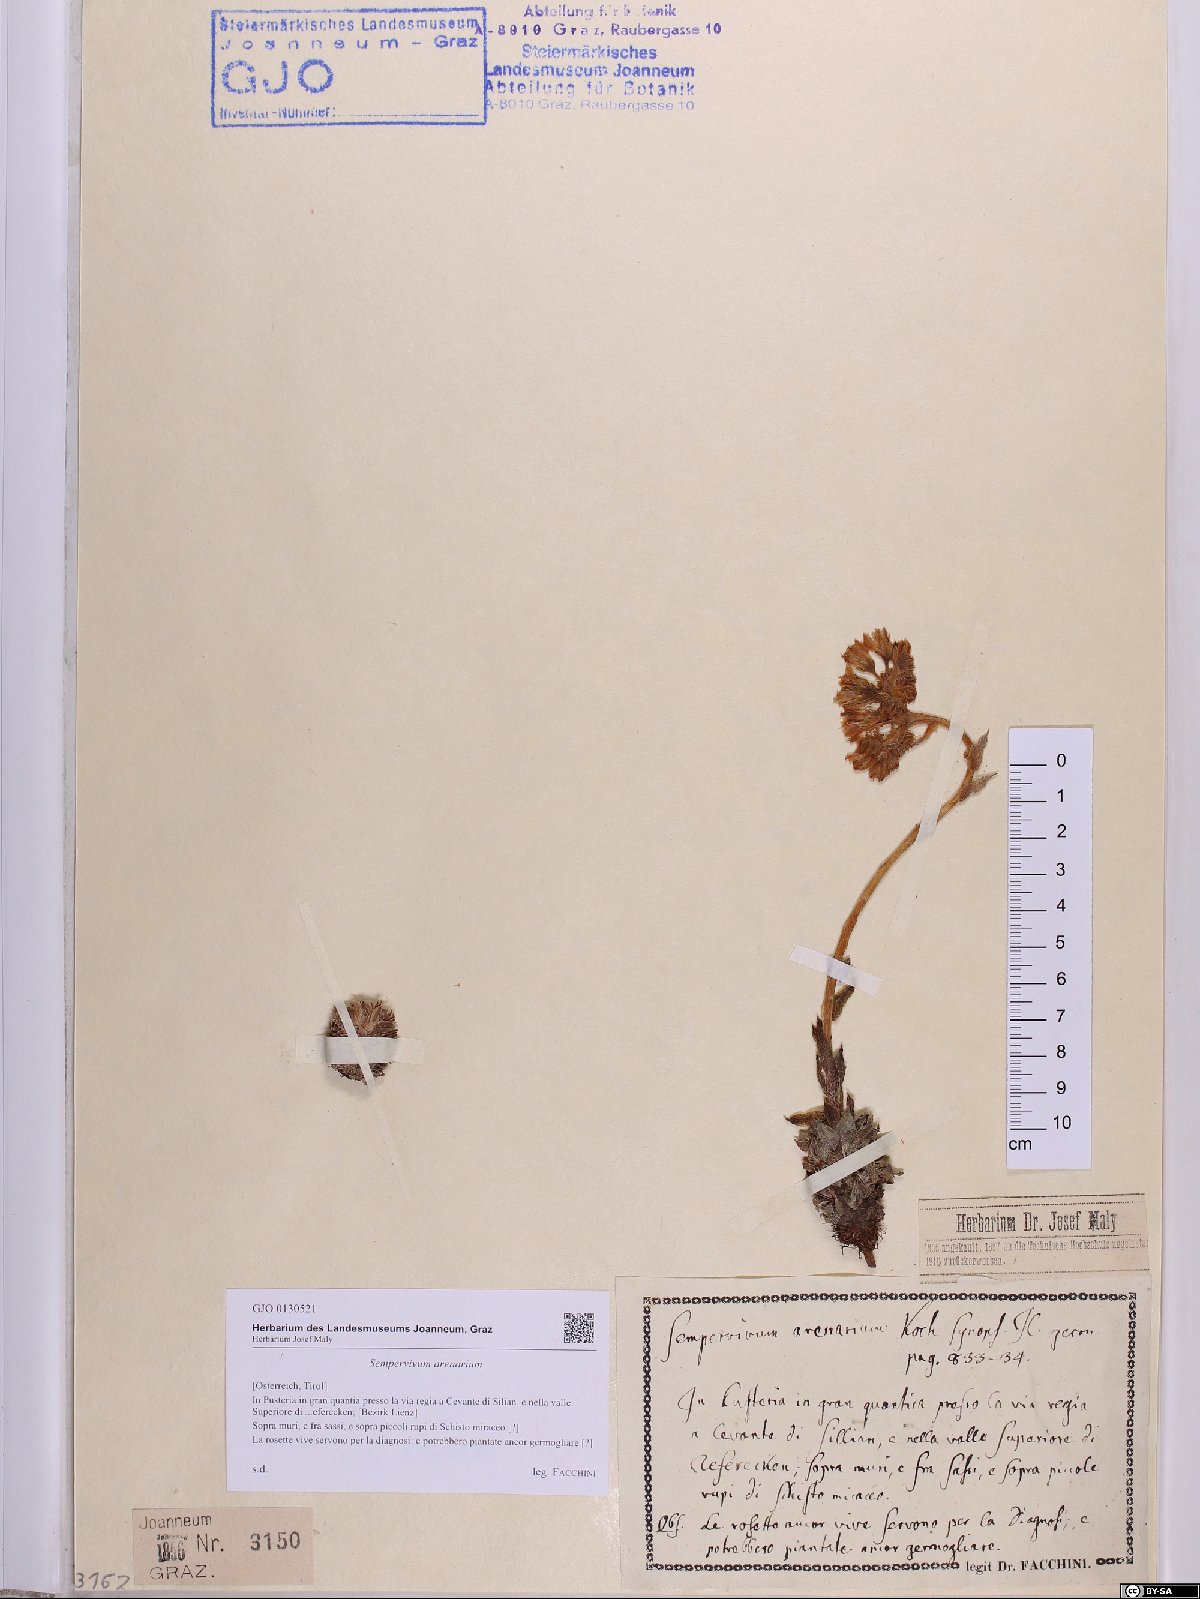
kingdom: Plantae
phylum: Tracheophyta
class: Magnoliopsida
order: Saxifragales
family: Crassulaceae
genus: Sempervivum
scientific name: Sempervivum globiferum
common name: Rolling hen-and-chicks
